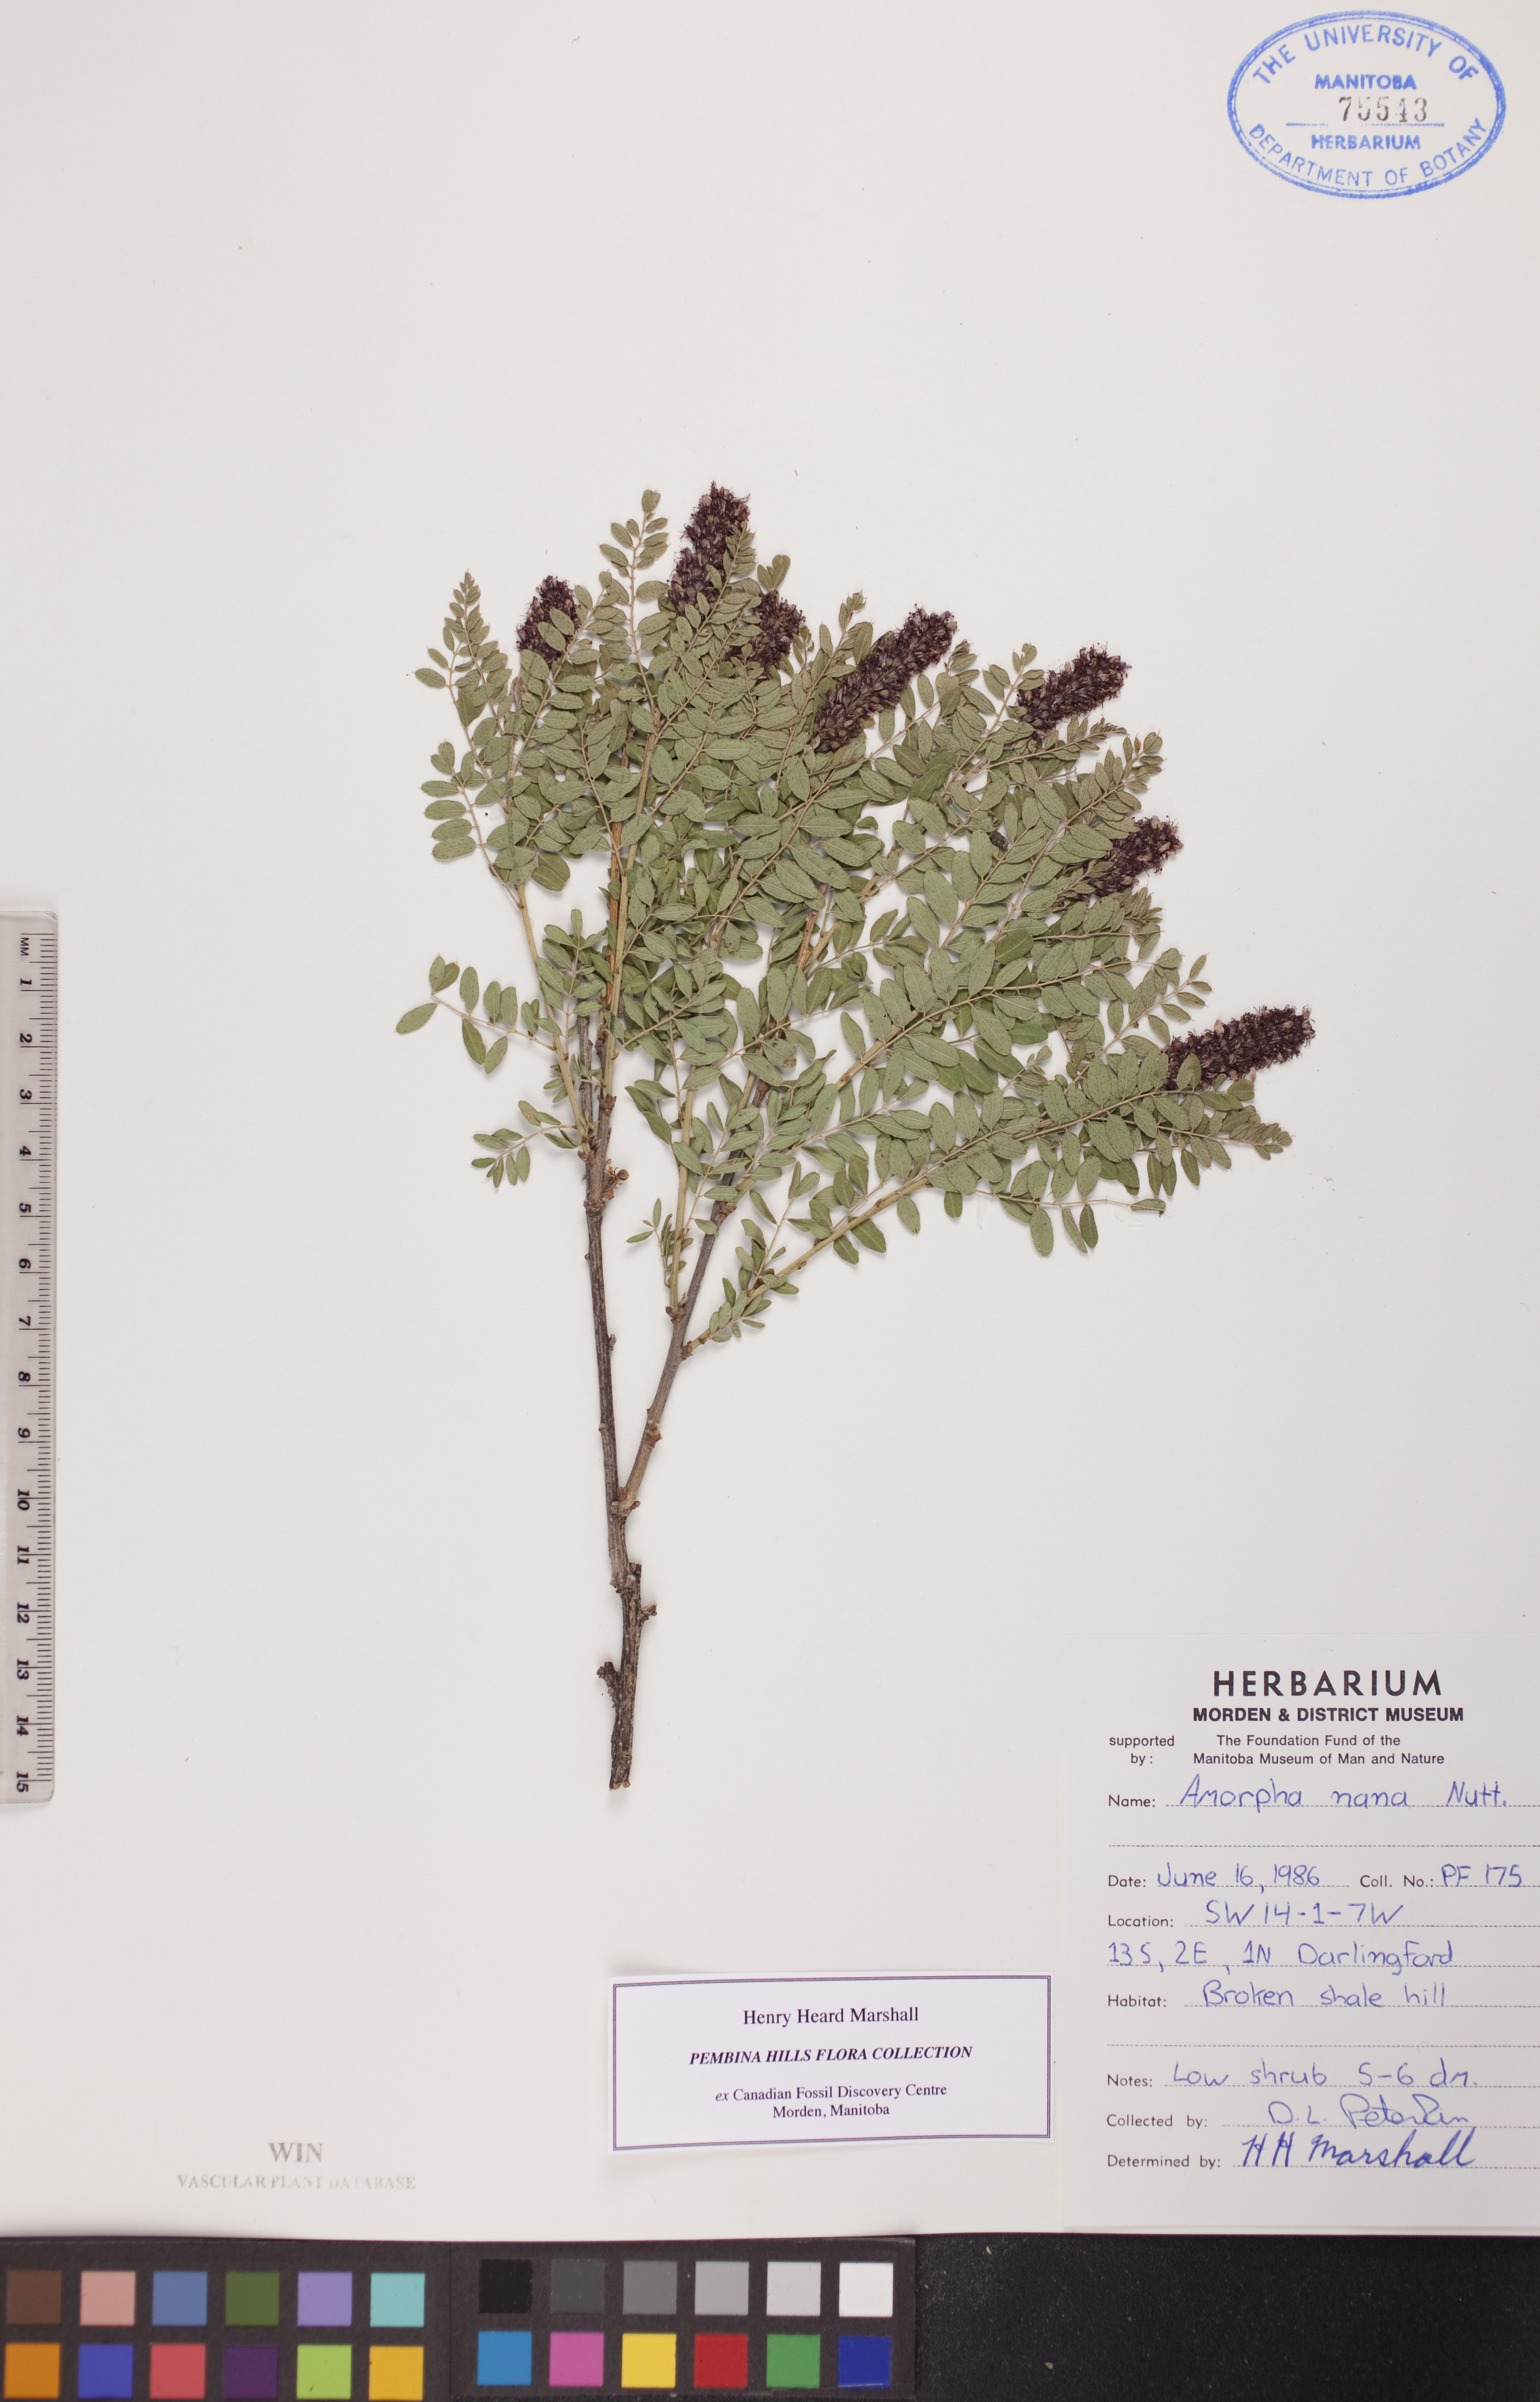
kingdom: Plantae
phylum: Tracheophyta
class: Magnoliopsida
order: Fabales
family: Fabaceae
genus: Amorpha
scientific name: Amorpha nana
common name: Fragrant false indigo
